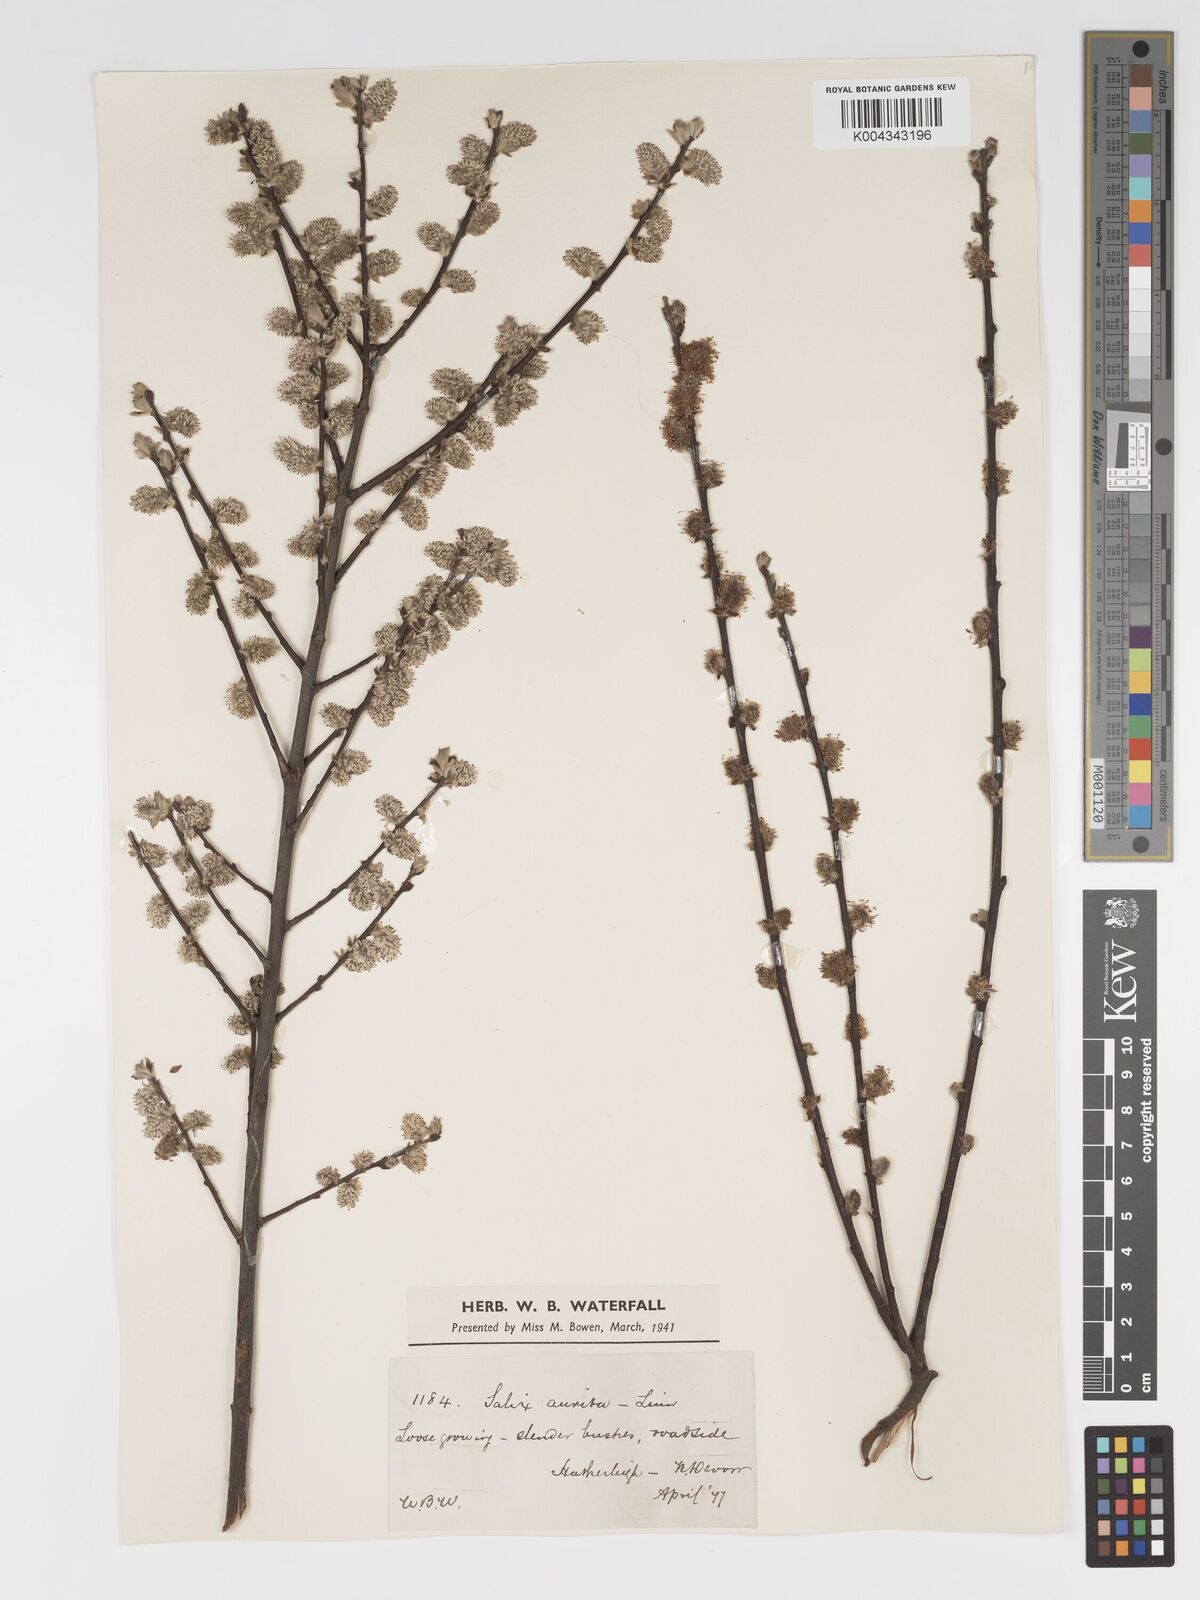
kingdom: Plantae
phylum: Tracheophyta
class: Magnoliopsida
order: Malpighiales
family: Salicaceae
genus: Salix
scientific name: Salix aurita
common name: Eared willow
